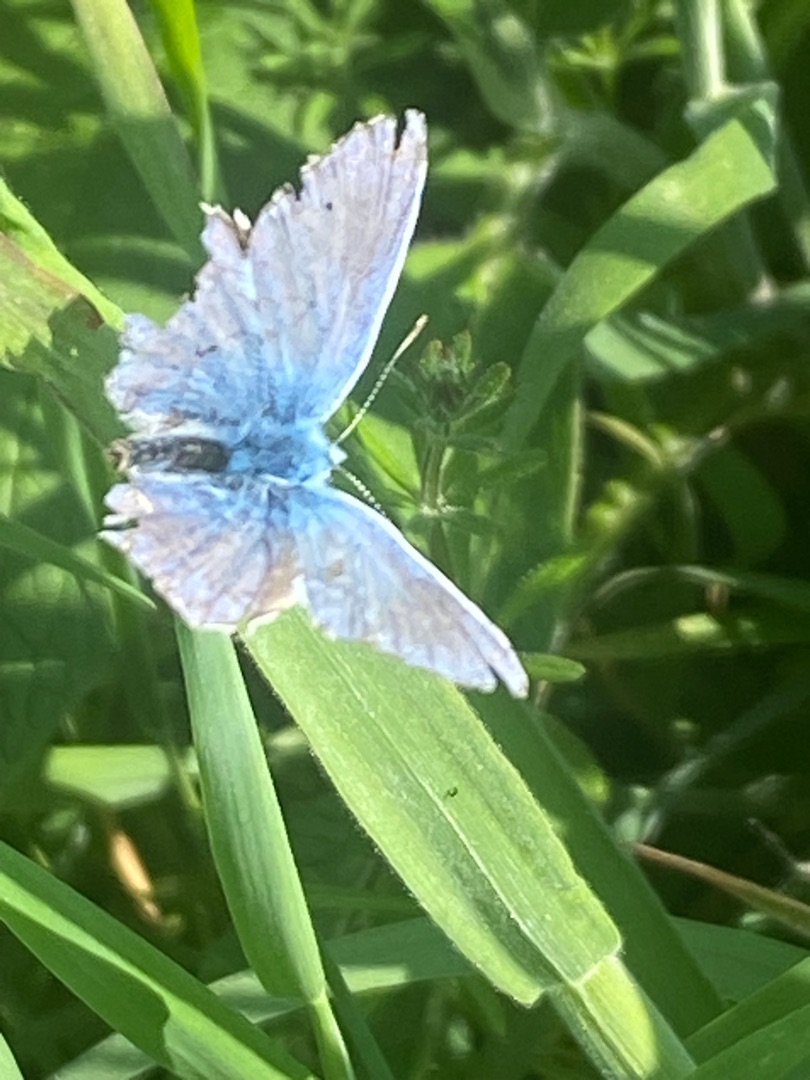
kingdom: Animalia
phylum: Arthropoda
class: Insecta
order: Lepidoptera
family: Lycaenidae
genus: Polyommatus
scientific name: Polyommatus icarus
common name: Almindelig blåfugl
